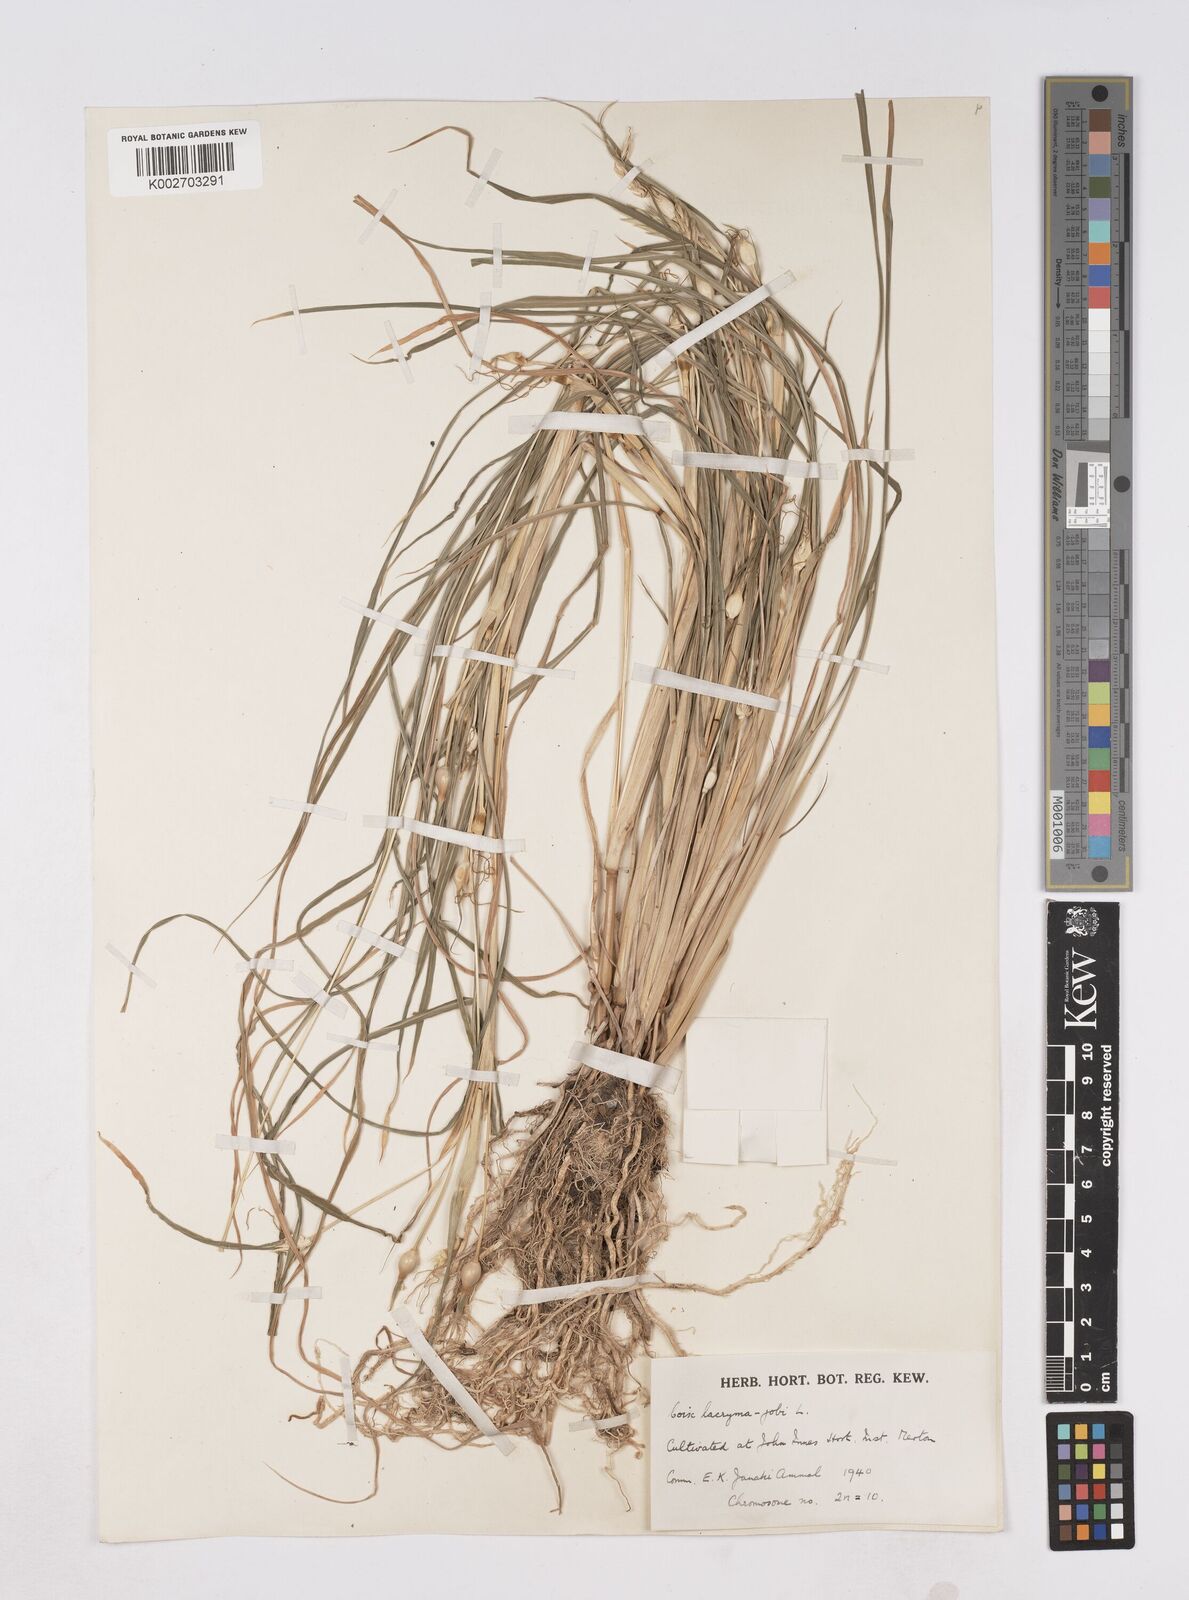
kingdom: Plantae
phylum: Tracheophyta
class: Liliopsida
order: Poales
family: Poaceae
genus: Coix
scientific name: Coix aquatica
